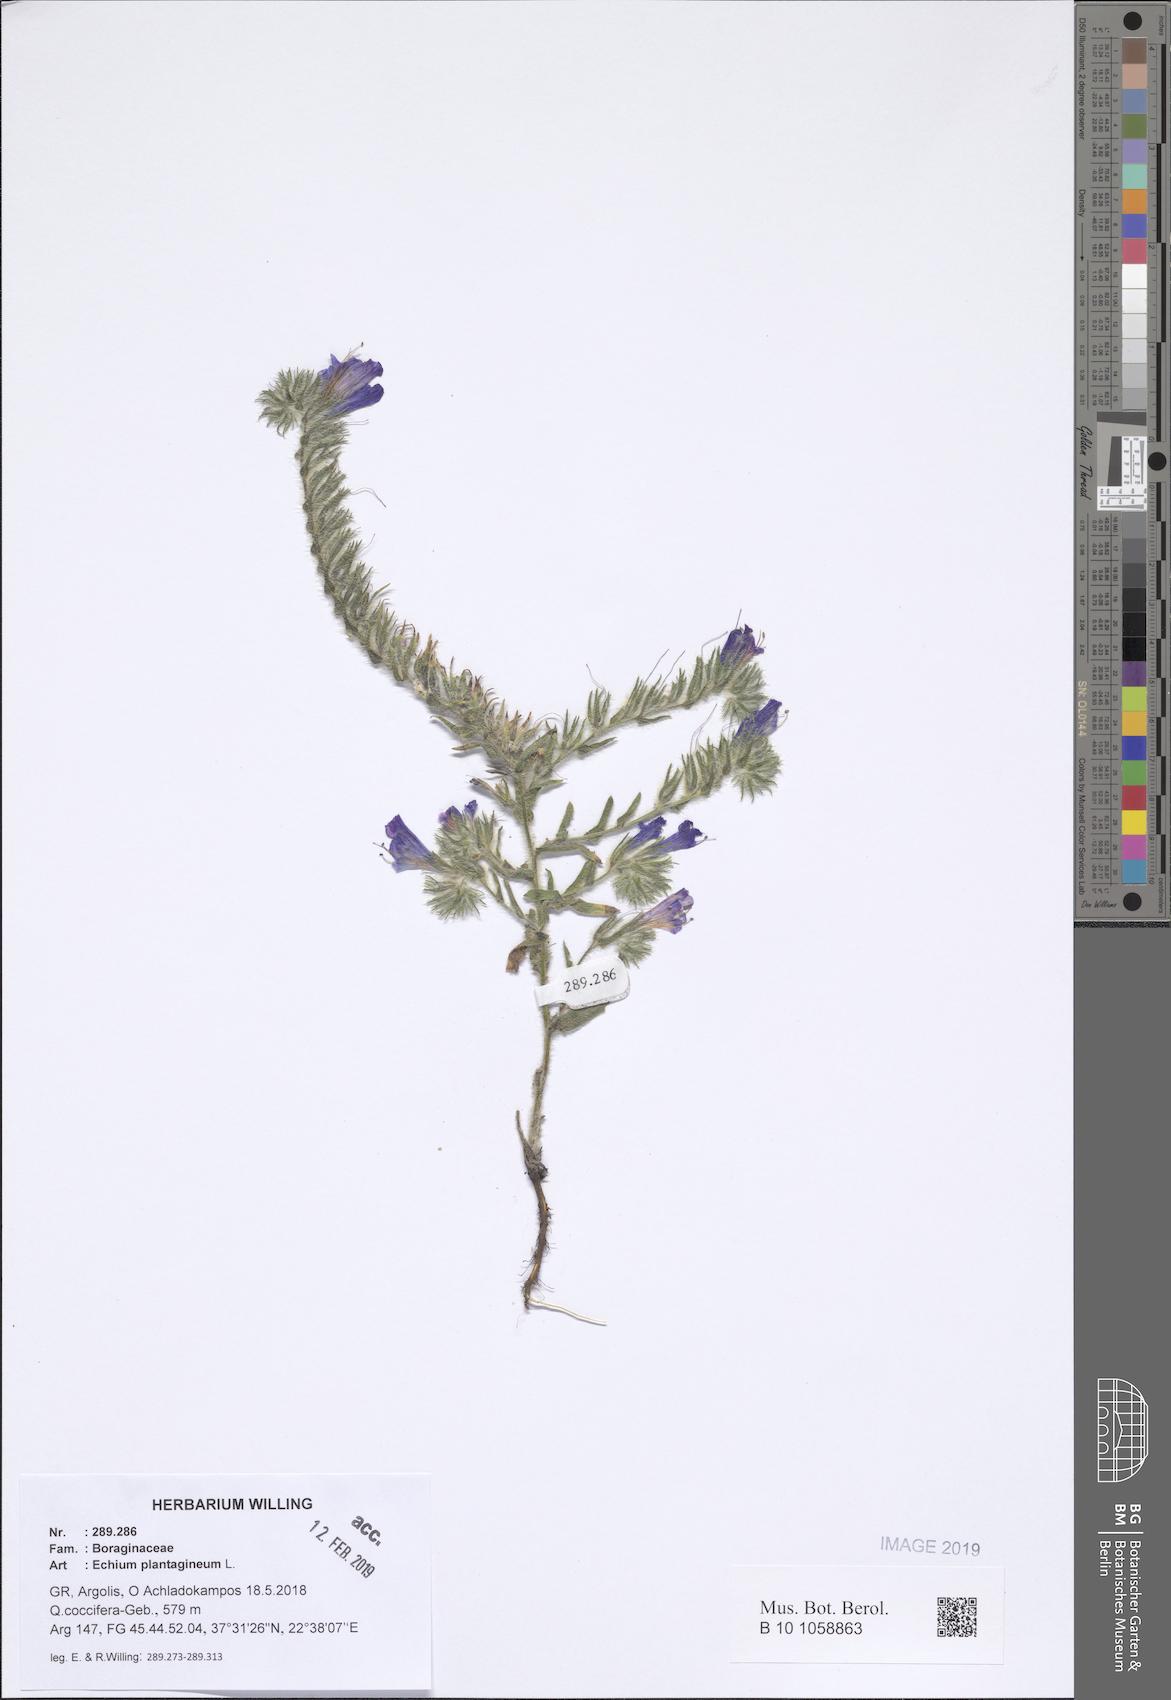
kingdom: Plantae
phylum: Tracheophyta
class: Magnoliopsida
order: Boraginales
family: Boraginaceae
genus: Echium
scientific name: Echium plantagineum
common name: Purple viper's-bugloss
